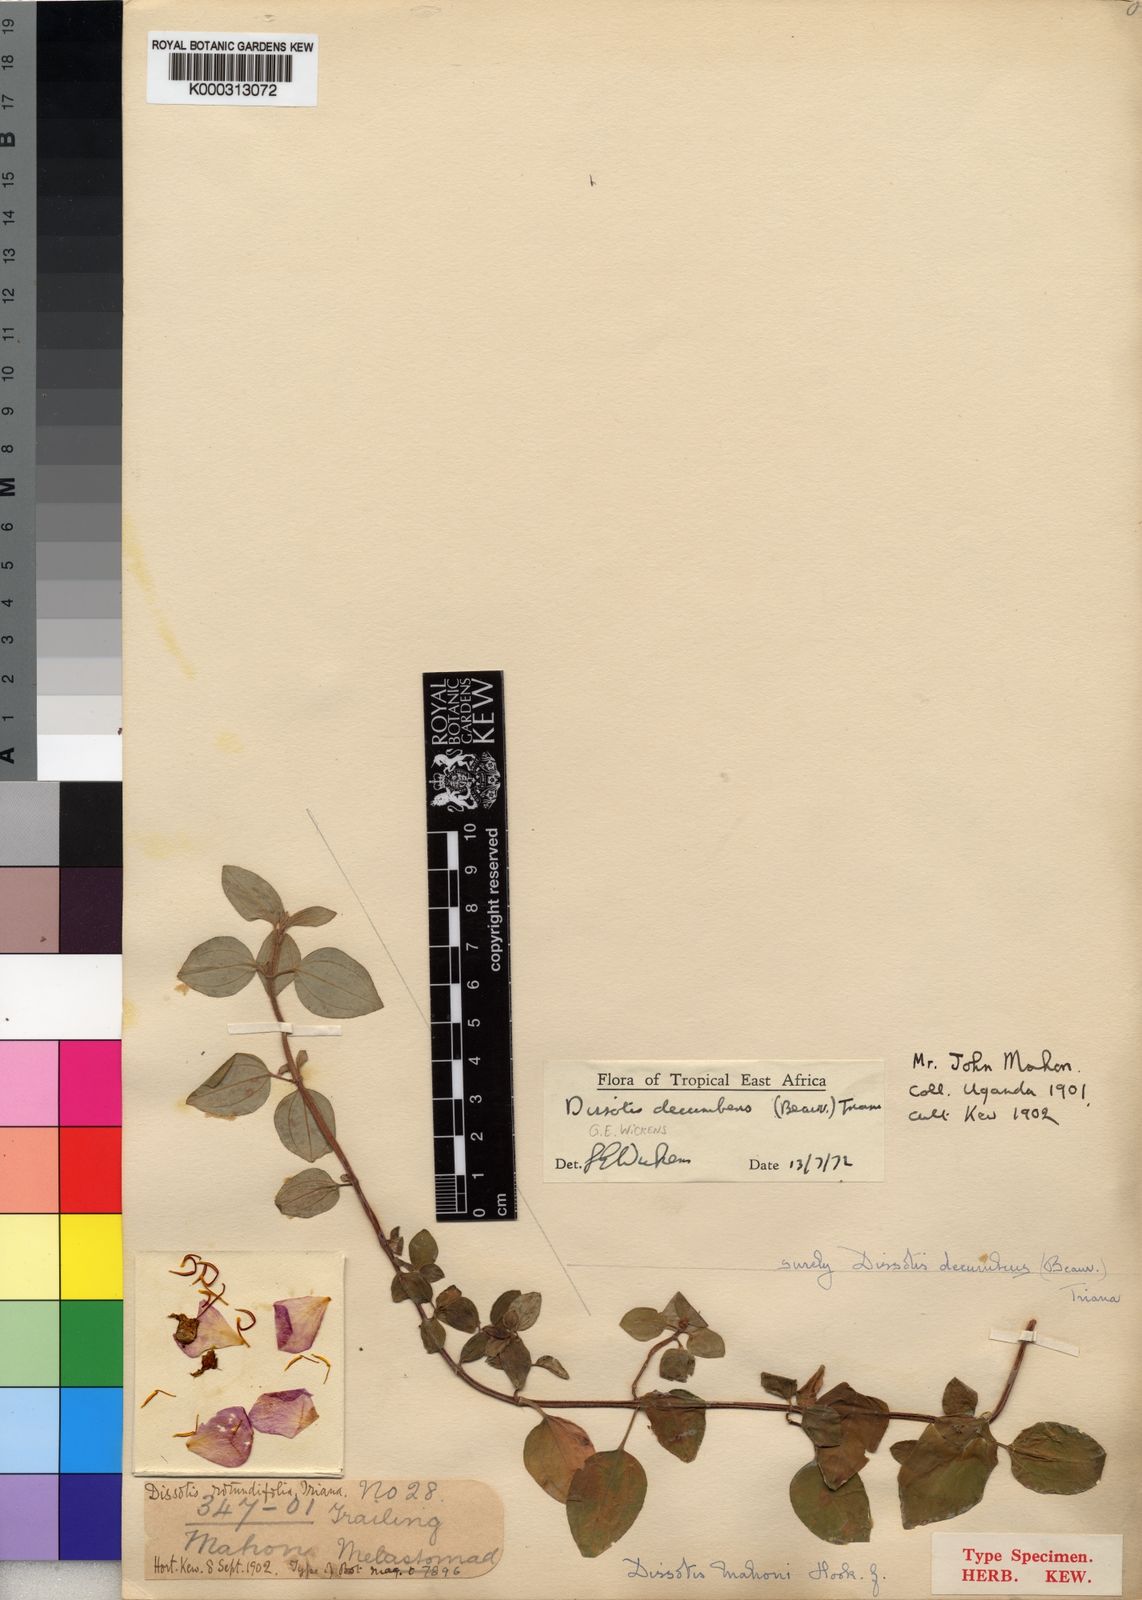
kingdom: Plantae
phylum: Tracheophyta
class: Magnoliopsida
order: Myrtales
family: Melastomataceae
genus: Heterotis
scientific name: Heterotis
